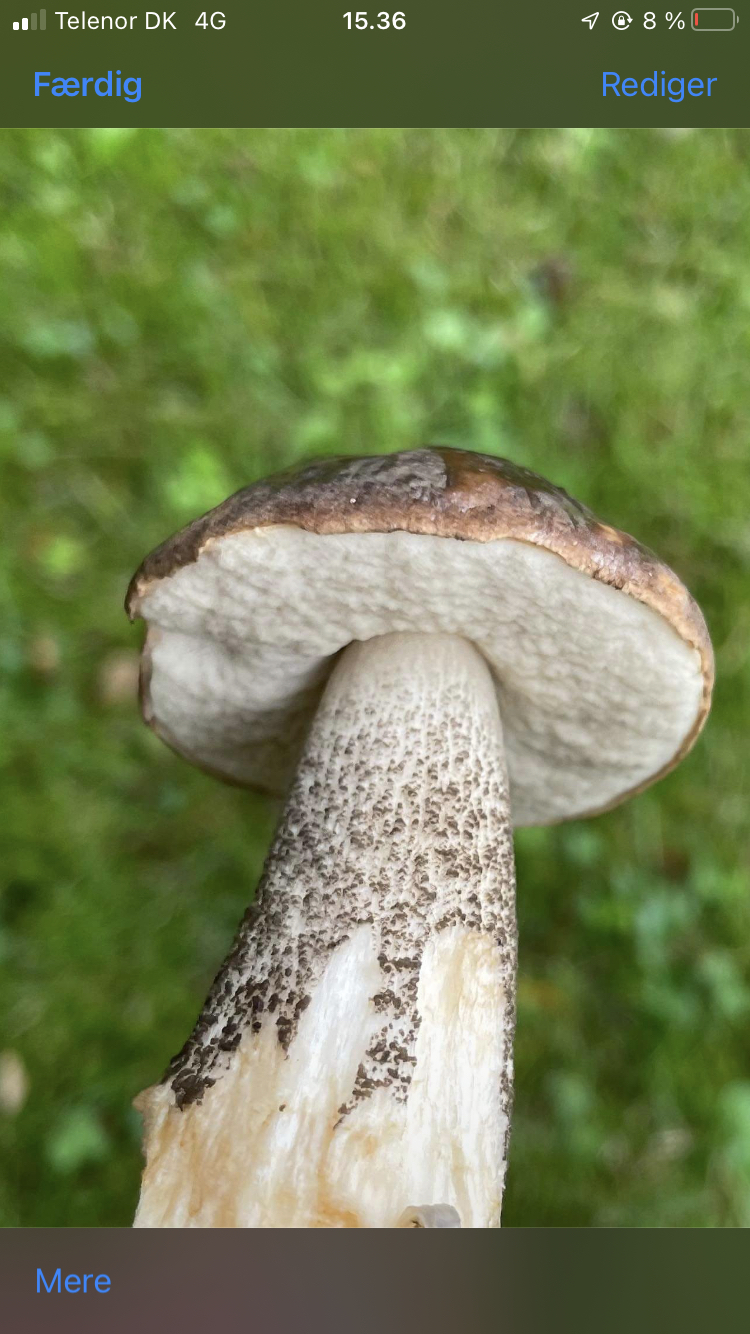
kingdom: Fungi
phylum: Basidiomycota
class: Agaricomycetes
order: Boletales
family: Boletaceae
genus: Leccinum
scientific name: Leccinum scabrum
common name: brun skælrørhat
